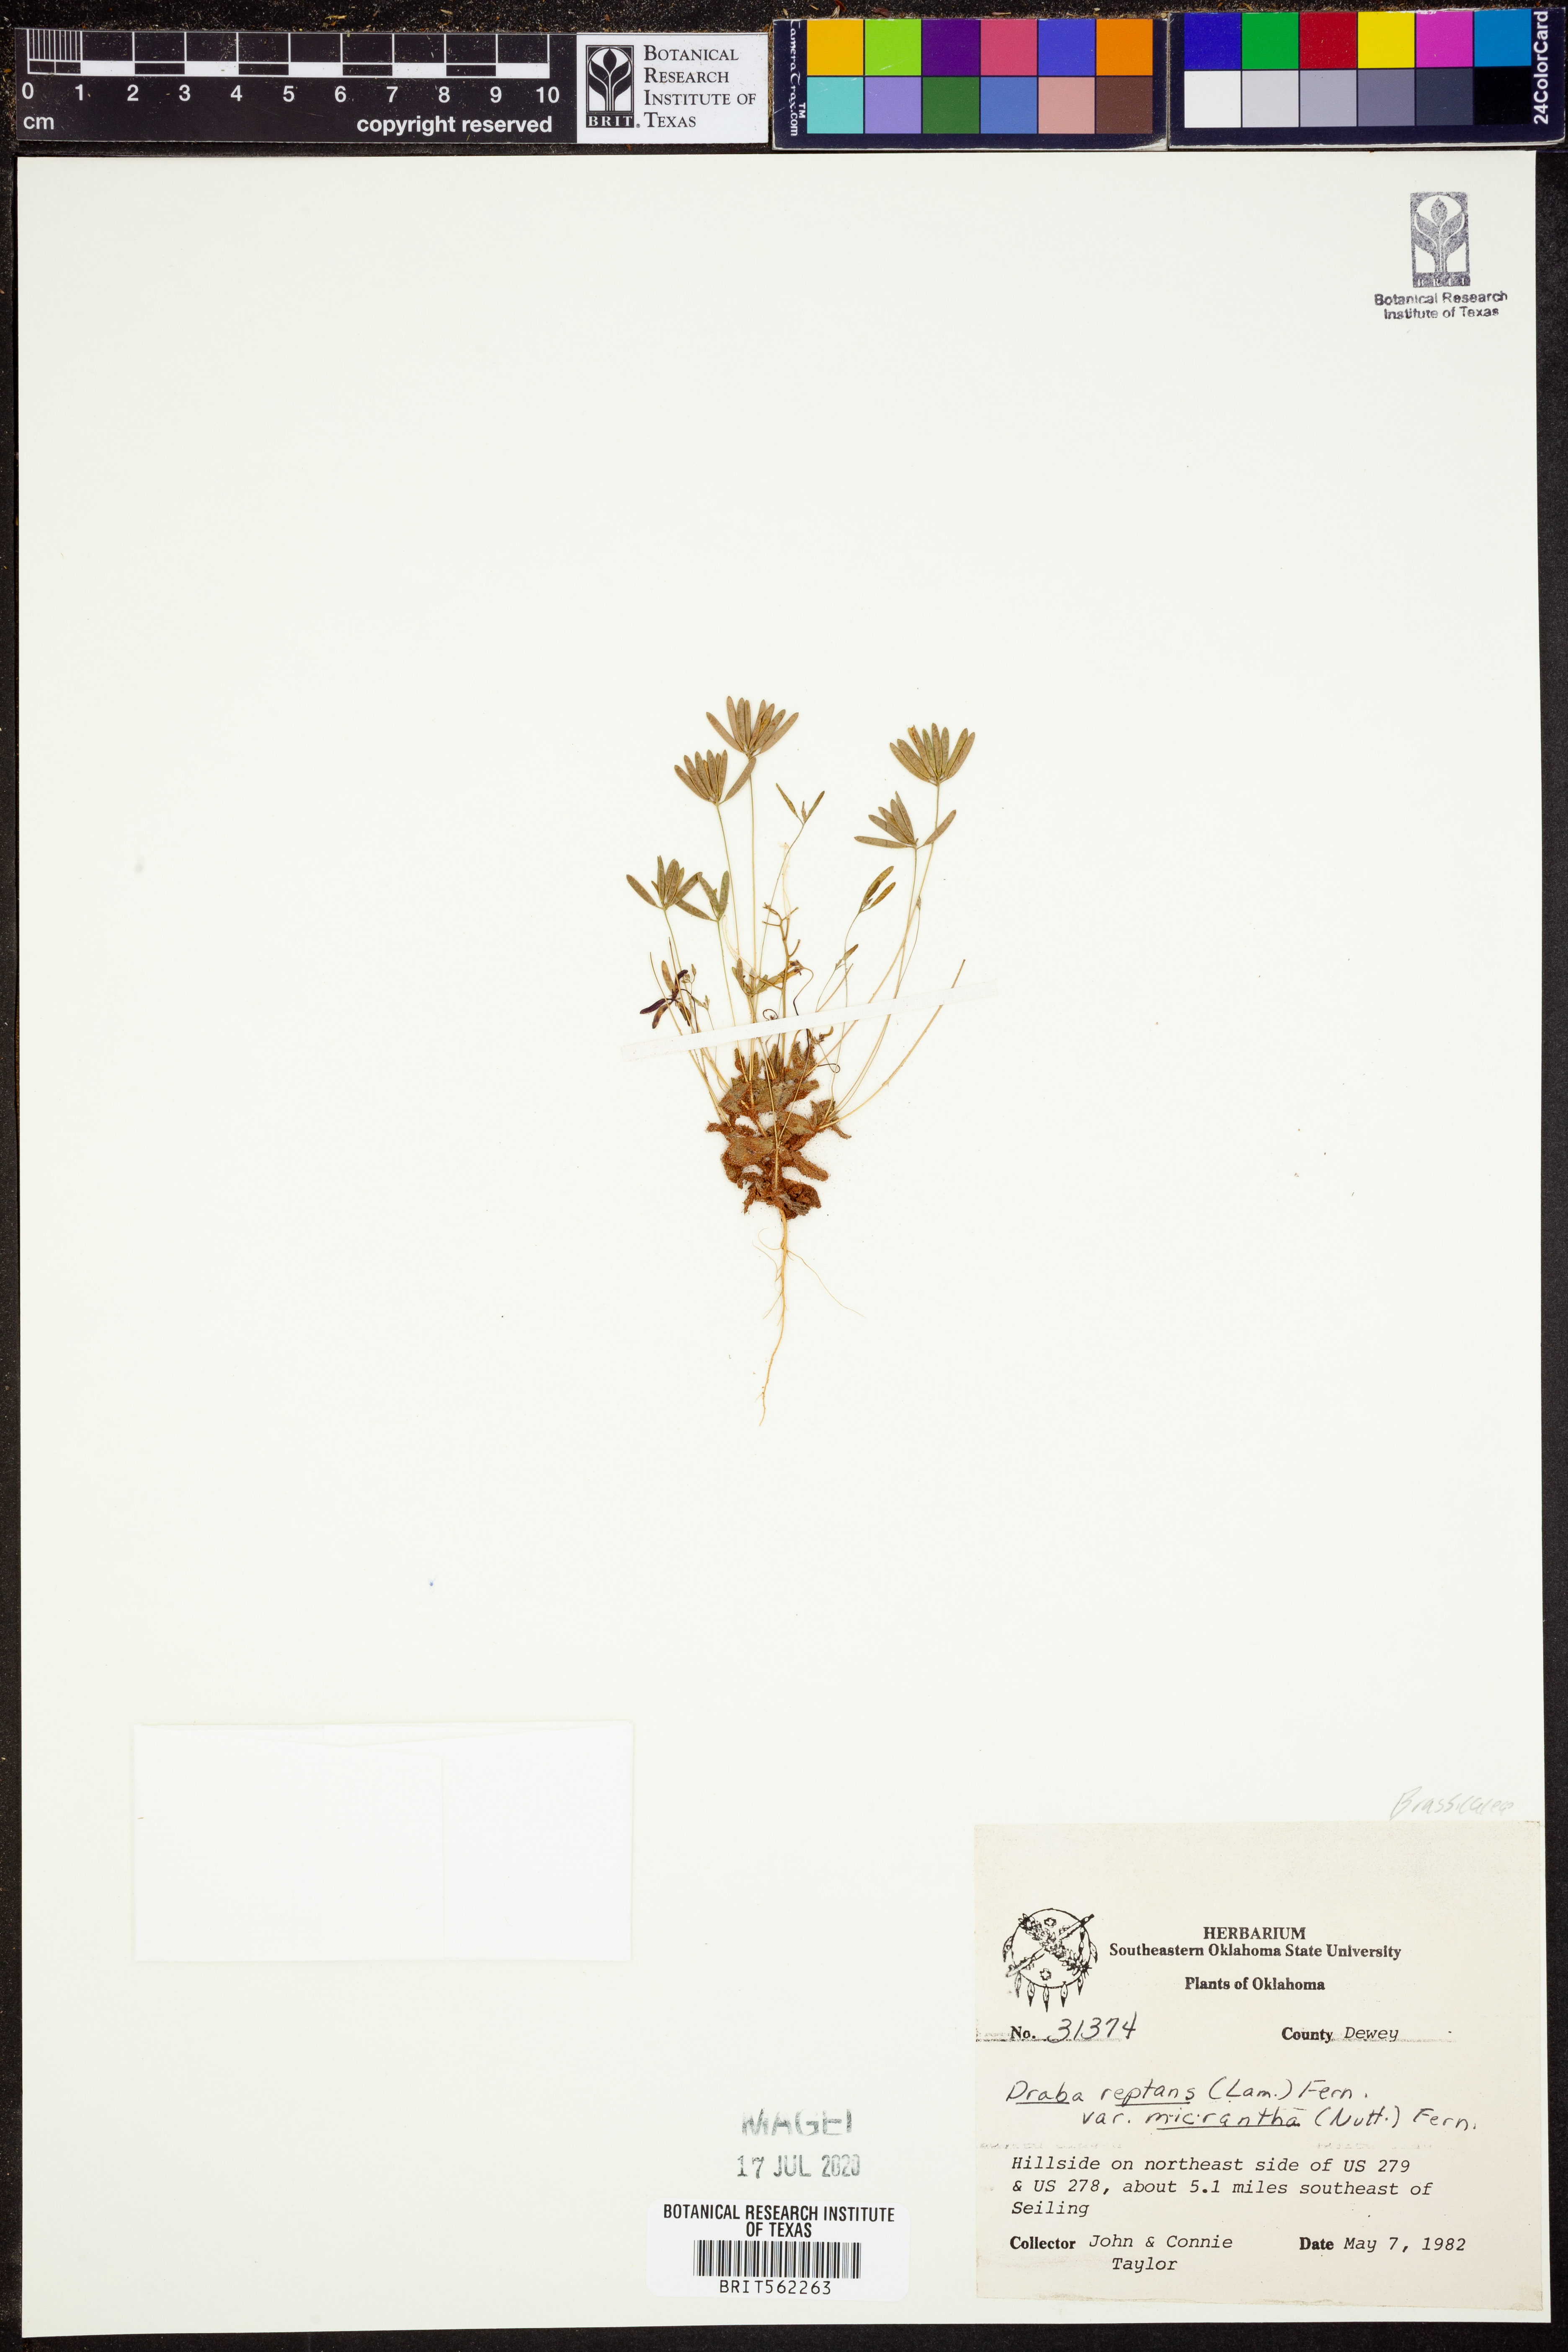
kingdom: Plantae
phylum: Tracheophyta
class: Magnoliopsida
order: Brassicales
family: Brassicaceae
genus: Tomostima
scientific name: Tomostima reptans
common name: Carolina draba
